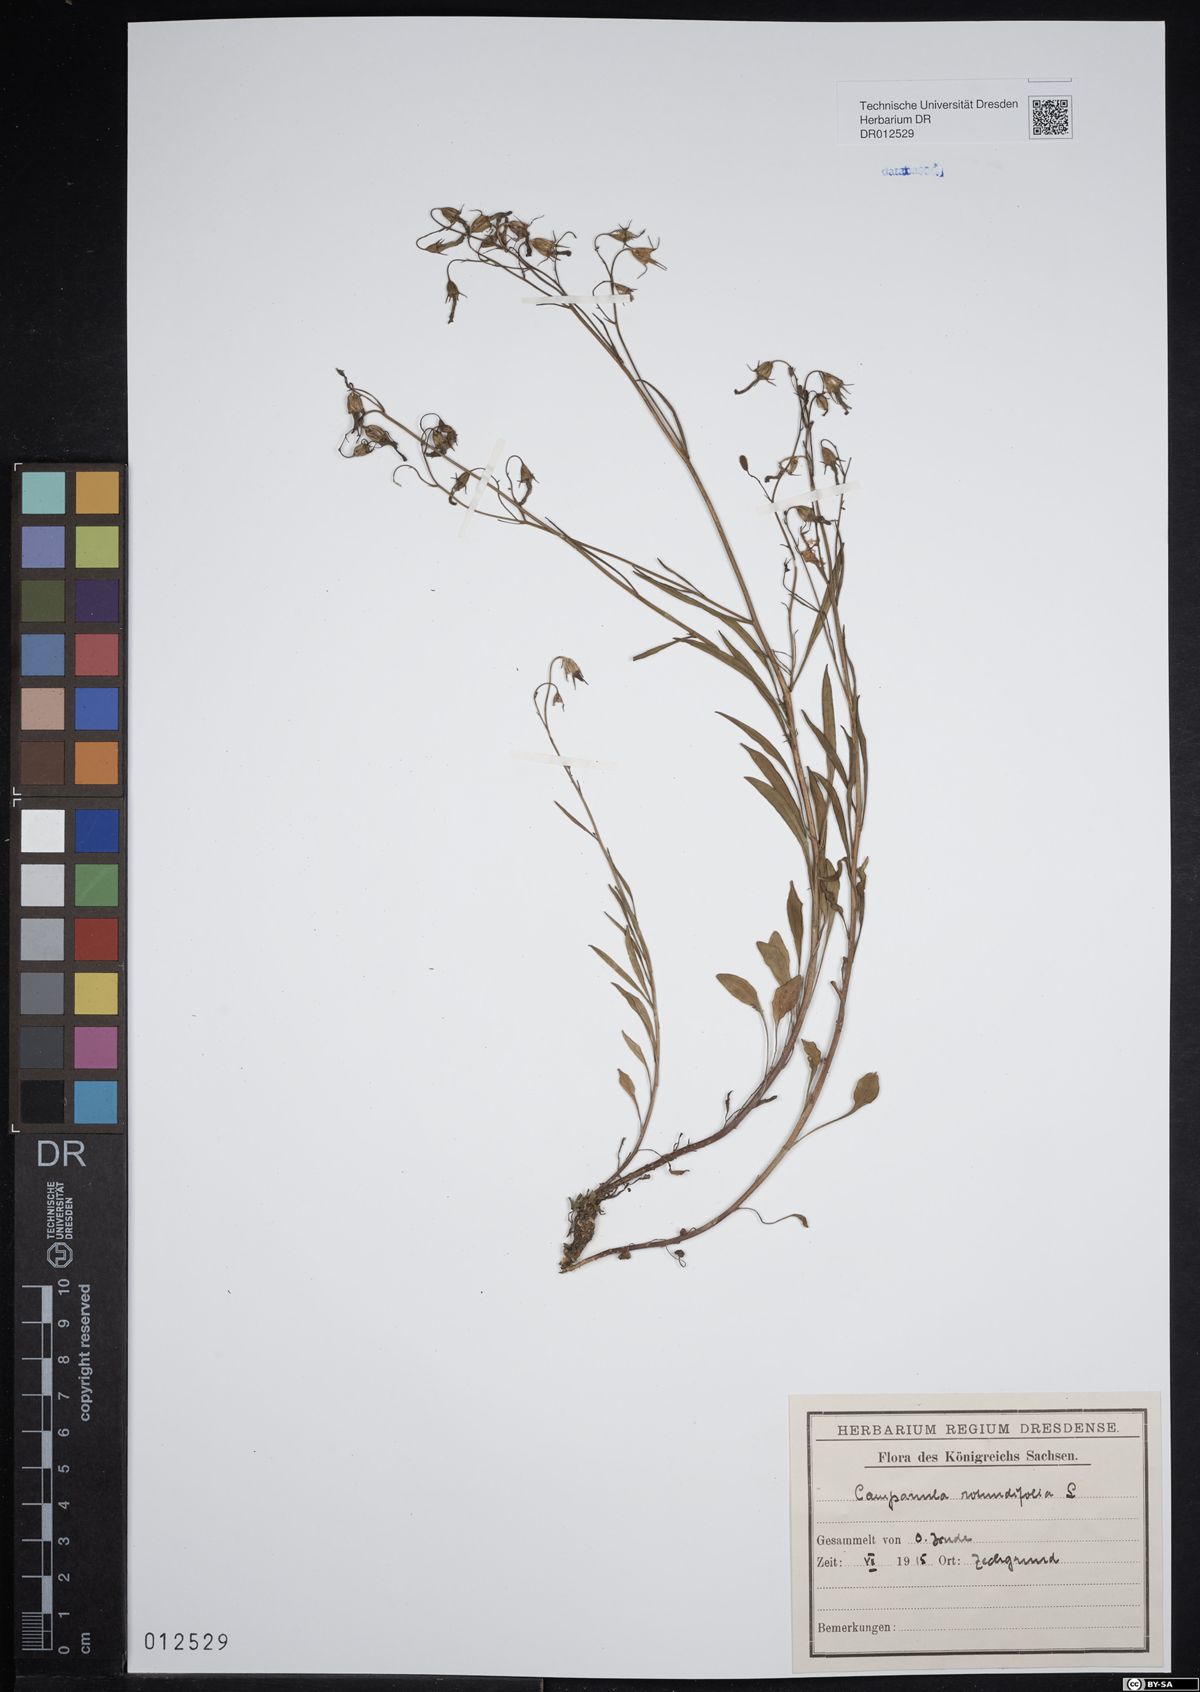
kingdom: Plantae
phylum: Tracheophyta
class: Magnoliopsida
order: Asterales
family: Campanulaceae
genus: Campanula
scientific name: Campanula rotundifolia
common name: Harebell
